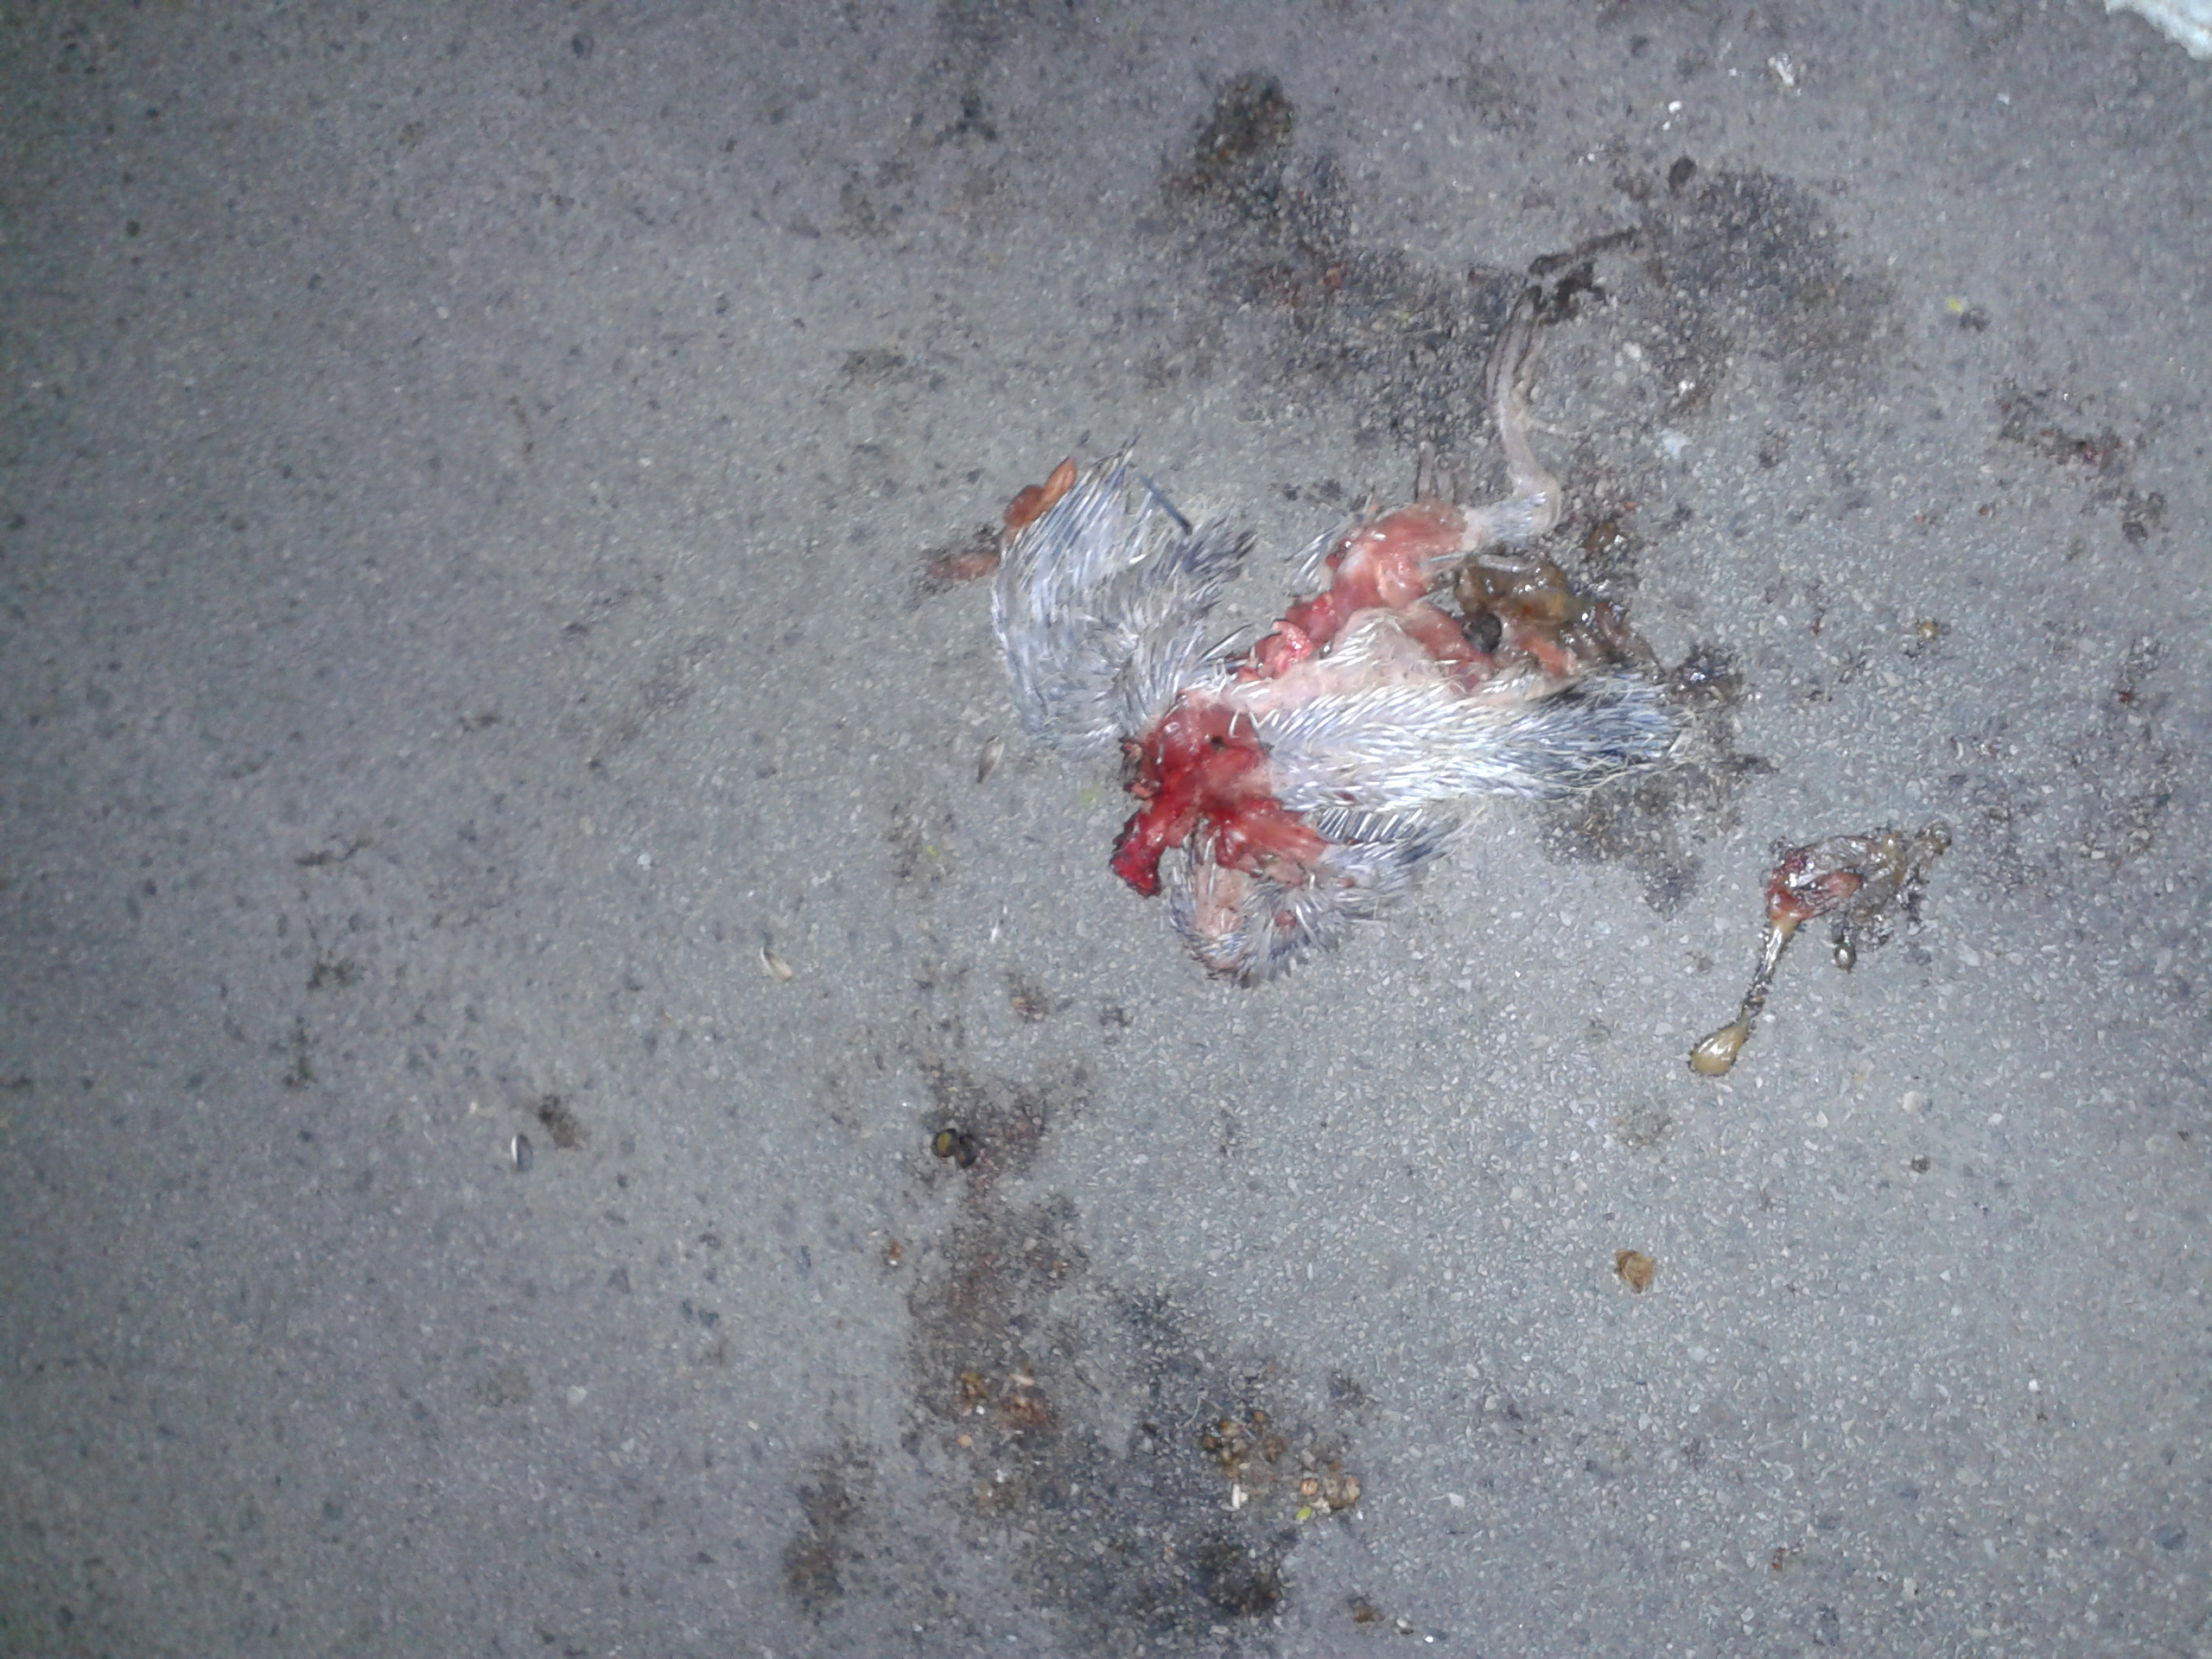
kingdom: Animalia
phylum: Chordata
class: Aves
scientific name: Aves
